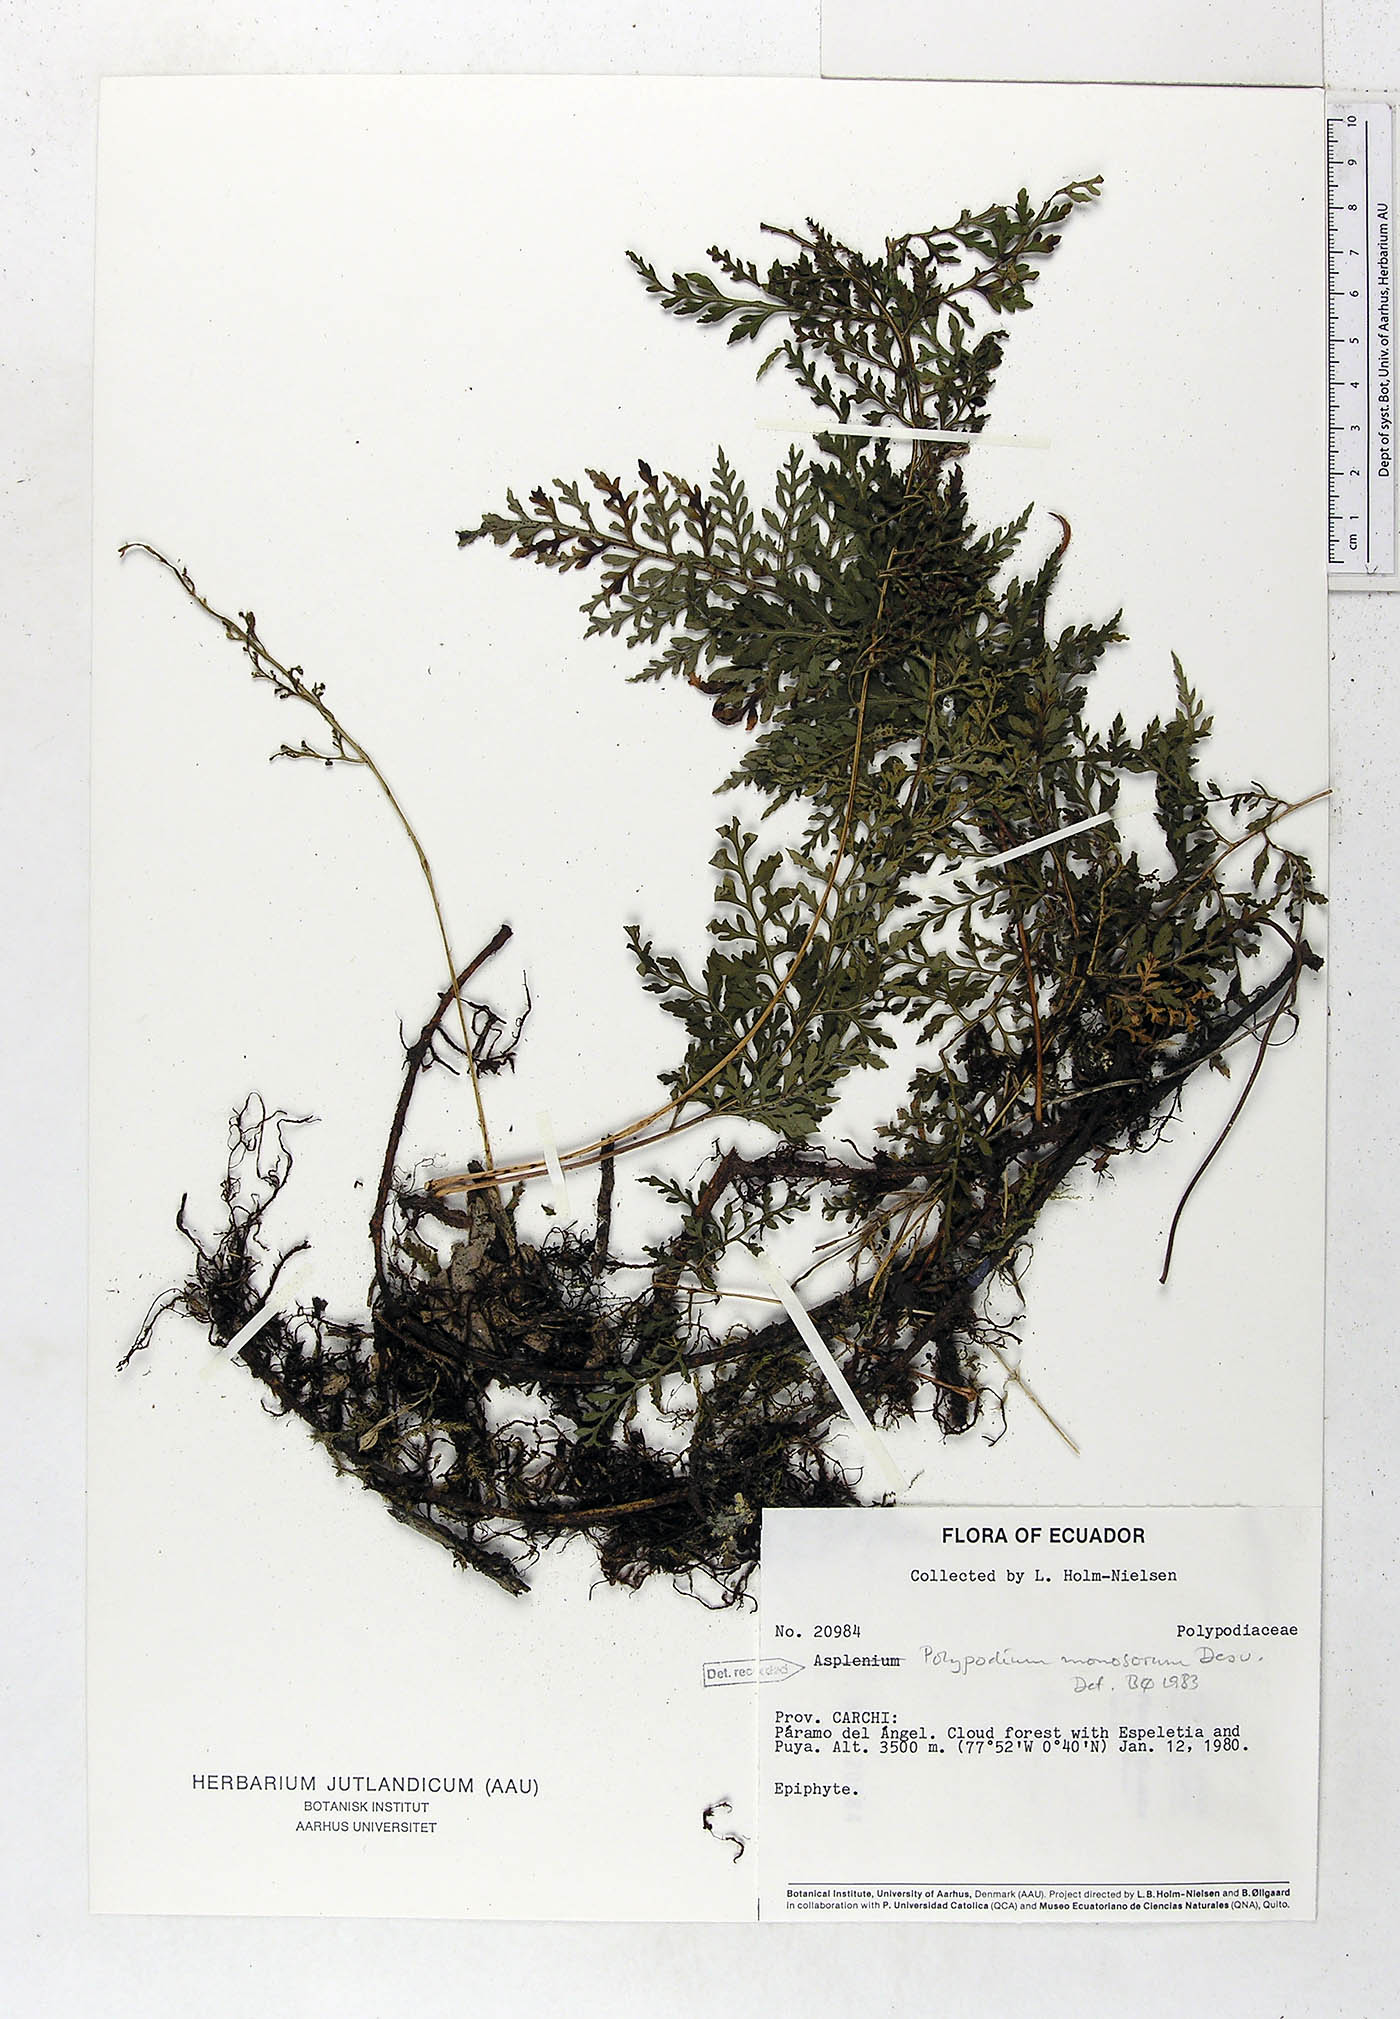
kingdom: Plantae
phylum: Tracheophyta
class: Polypodiopsida
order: Polypodiales
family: Polypodiaceae
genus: Pleopeltis
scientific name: Pleopeltis monosora
